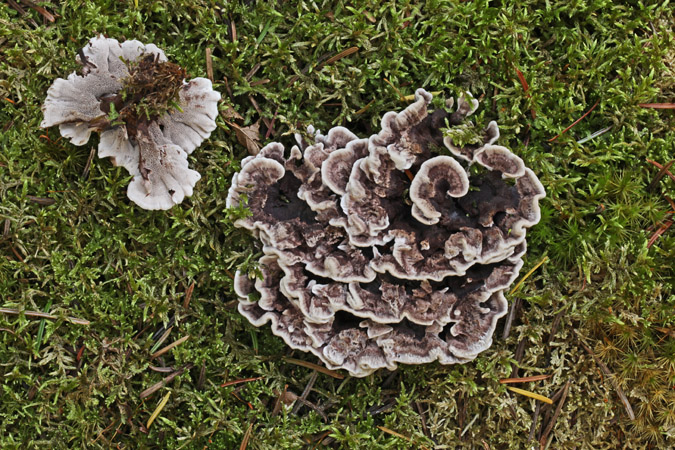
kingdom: Fungi
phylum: Basidiomycota
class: Agaricomycetes
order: Thelephorales
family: Thelephoraceae
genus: Phellodon
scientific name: Phellodon tomentosus
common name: vellugtende duftpigsvamp
